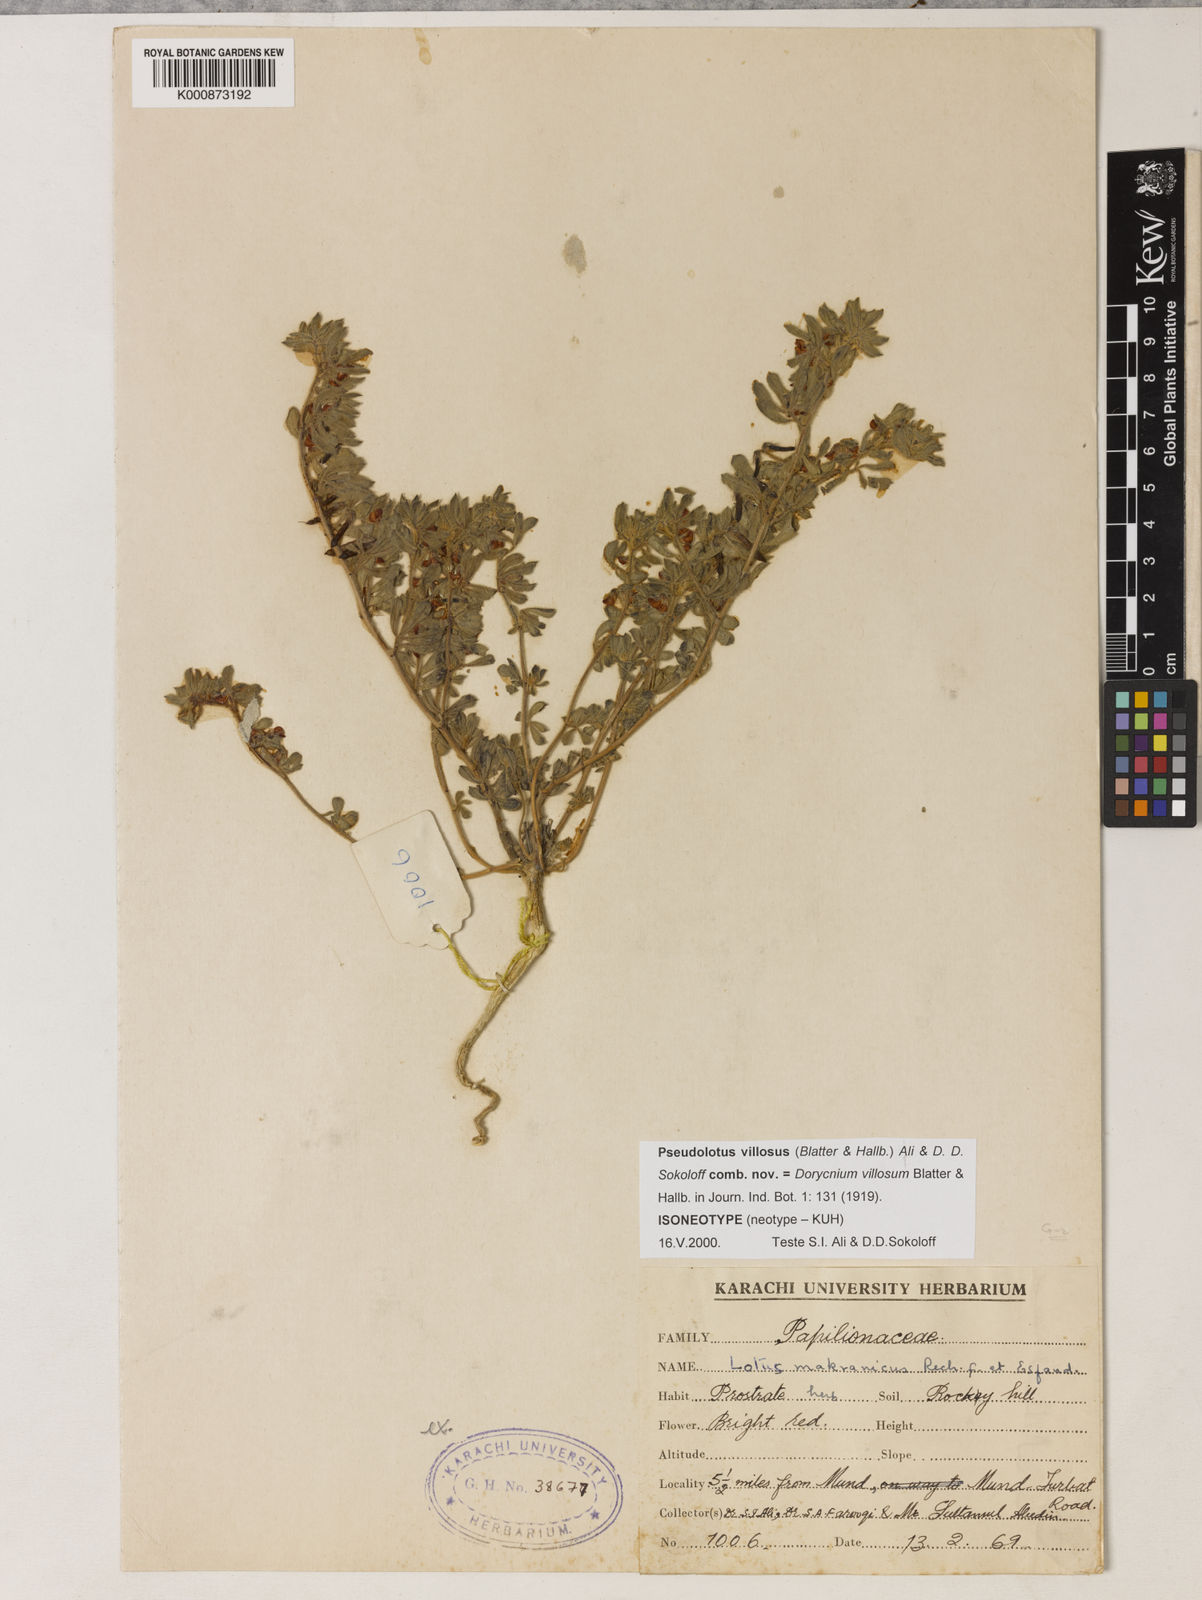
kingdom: Plantae
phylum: Tracheophyta
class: Magnoliopsida
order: Fabales
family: Fabaceae
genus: Pseudolotus
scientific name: Pseudolotus villosus
